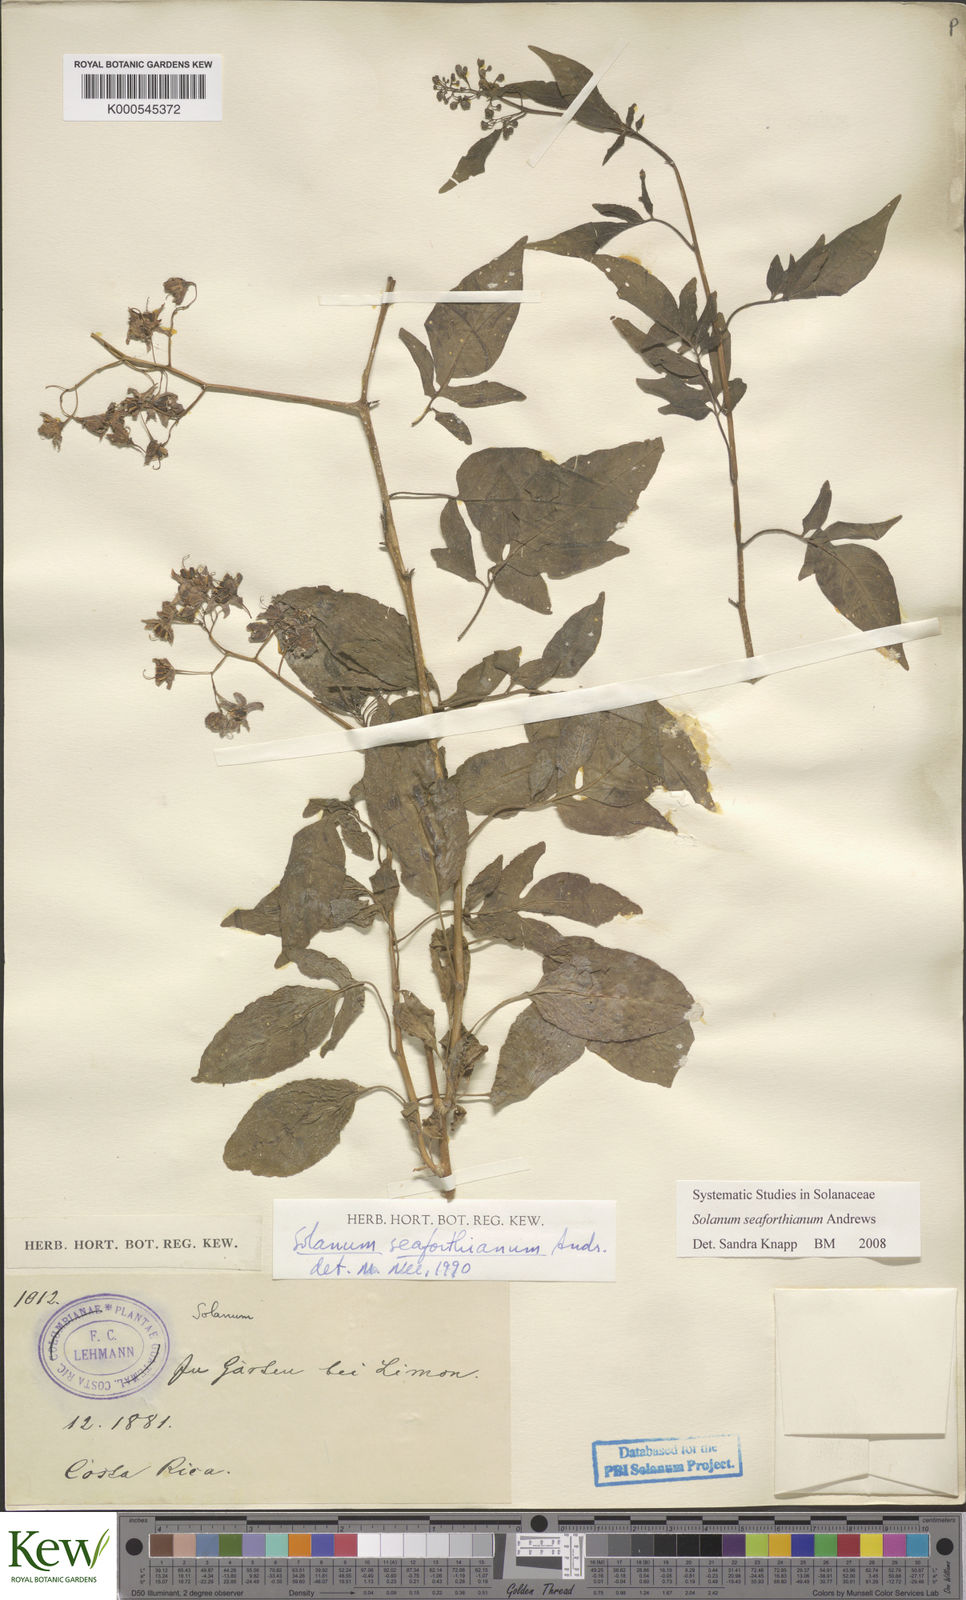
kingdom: Plantae
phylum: Tracheophyta
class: Magnoliopsida
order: Solanales
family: Solanaceae
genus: Solanum
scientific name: Solanum seaforthianum
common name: Brazilian nightshade
